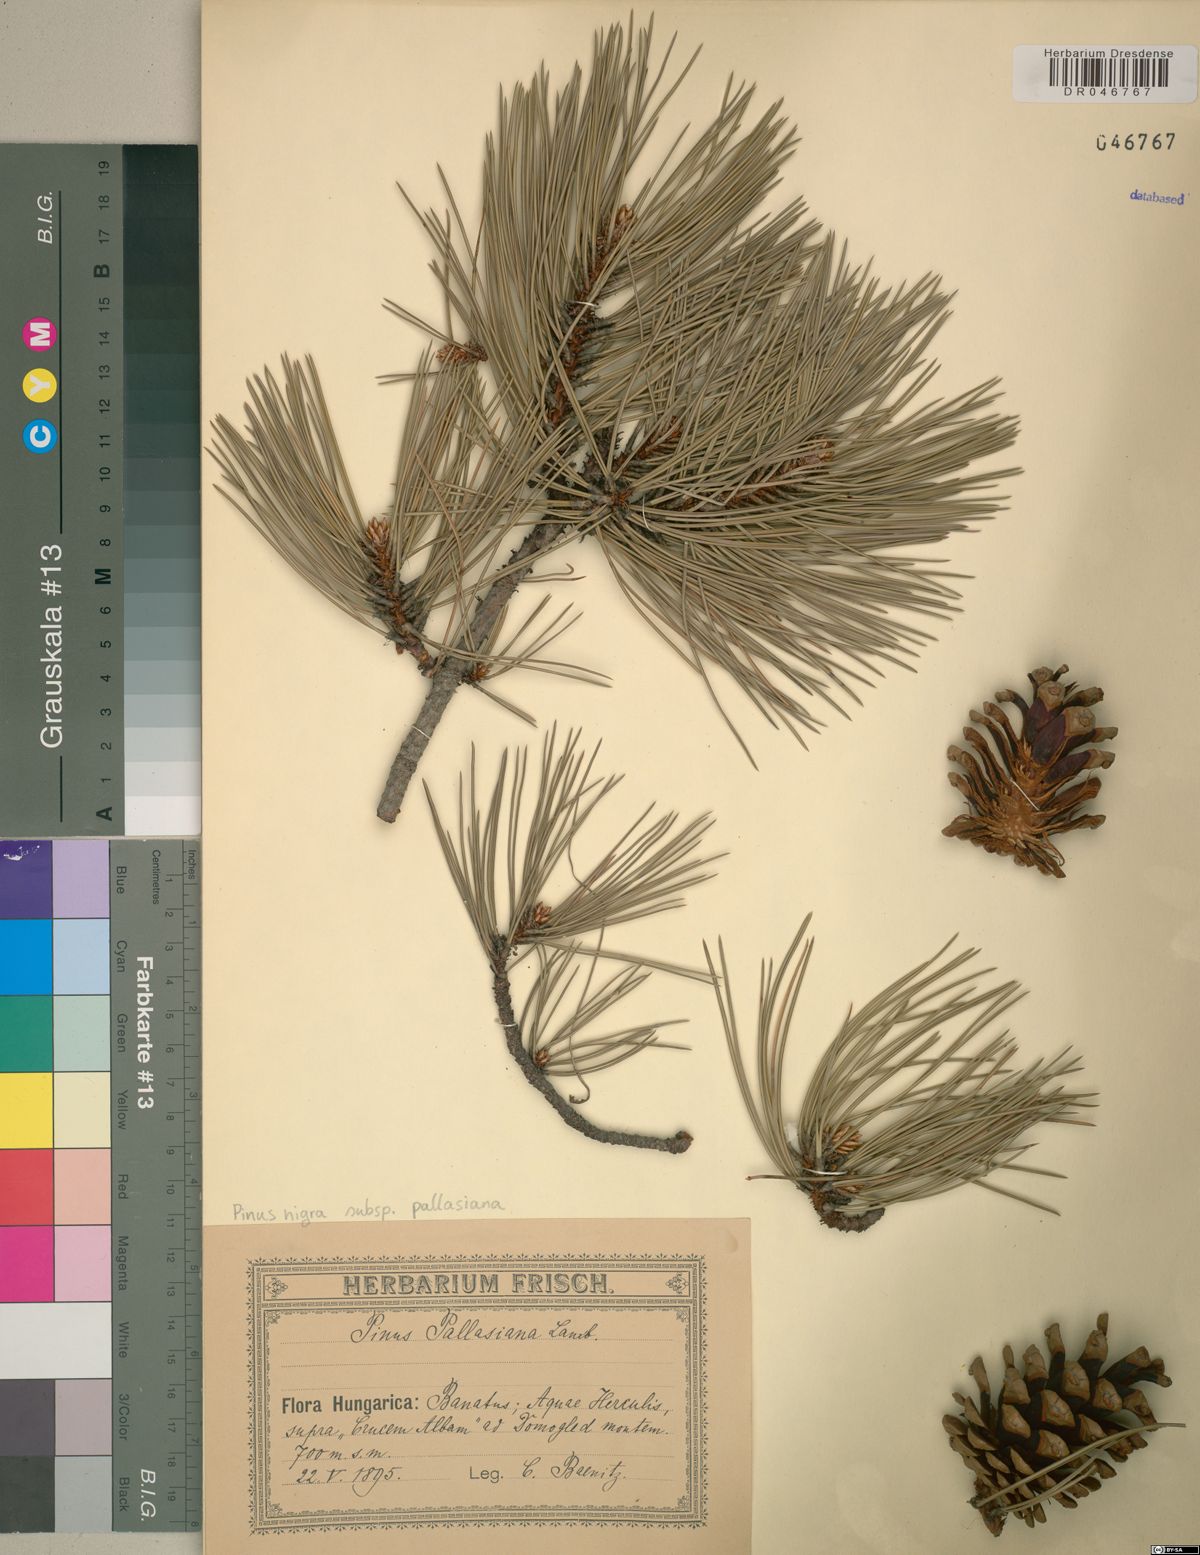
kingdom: Plantae
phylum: Tracheophyta
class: Pinopsida
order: Pinales
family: Pinaceae
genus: Pinus
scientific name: Pinus nigra
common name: Austrian pine
